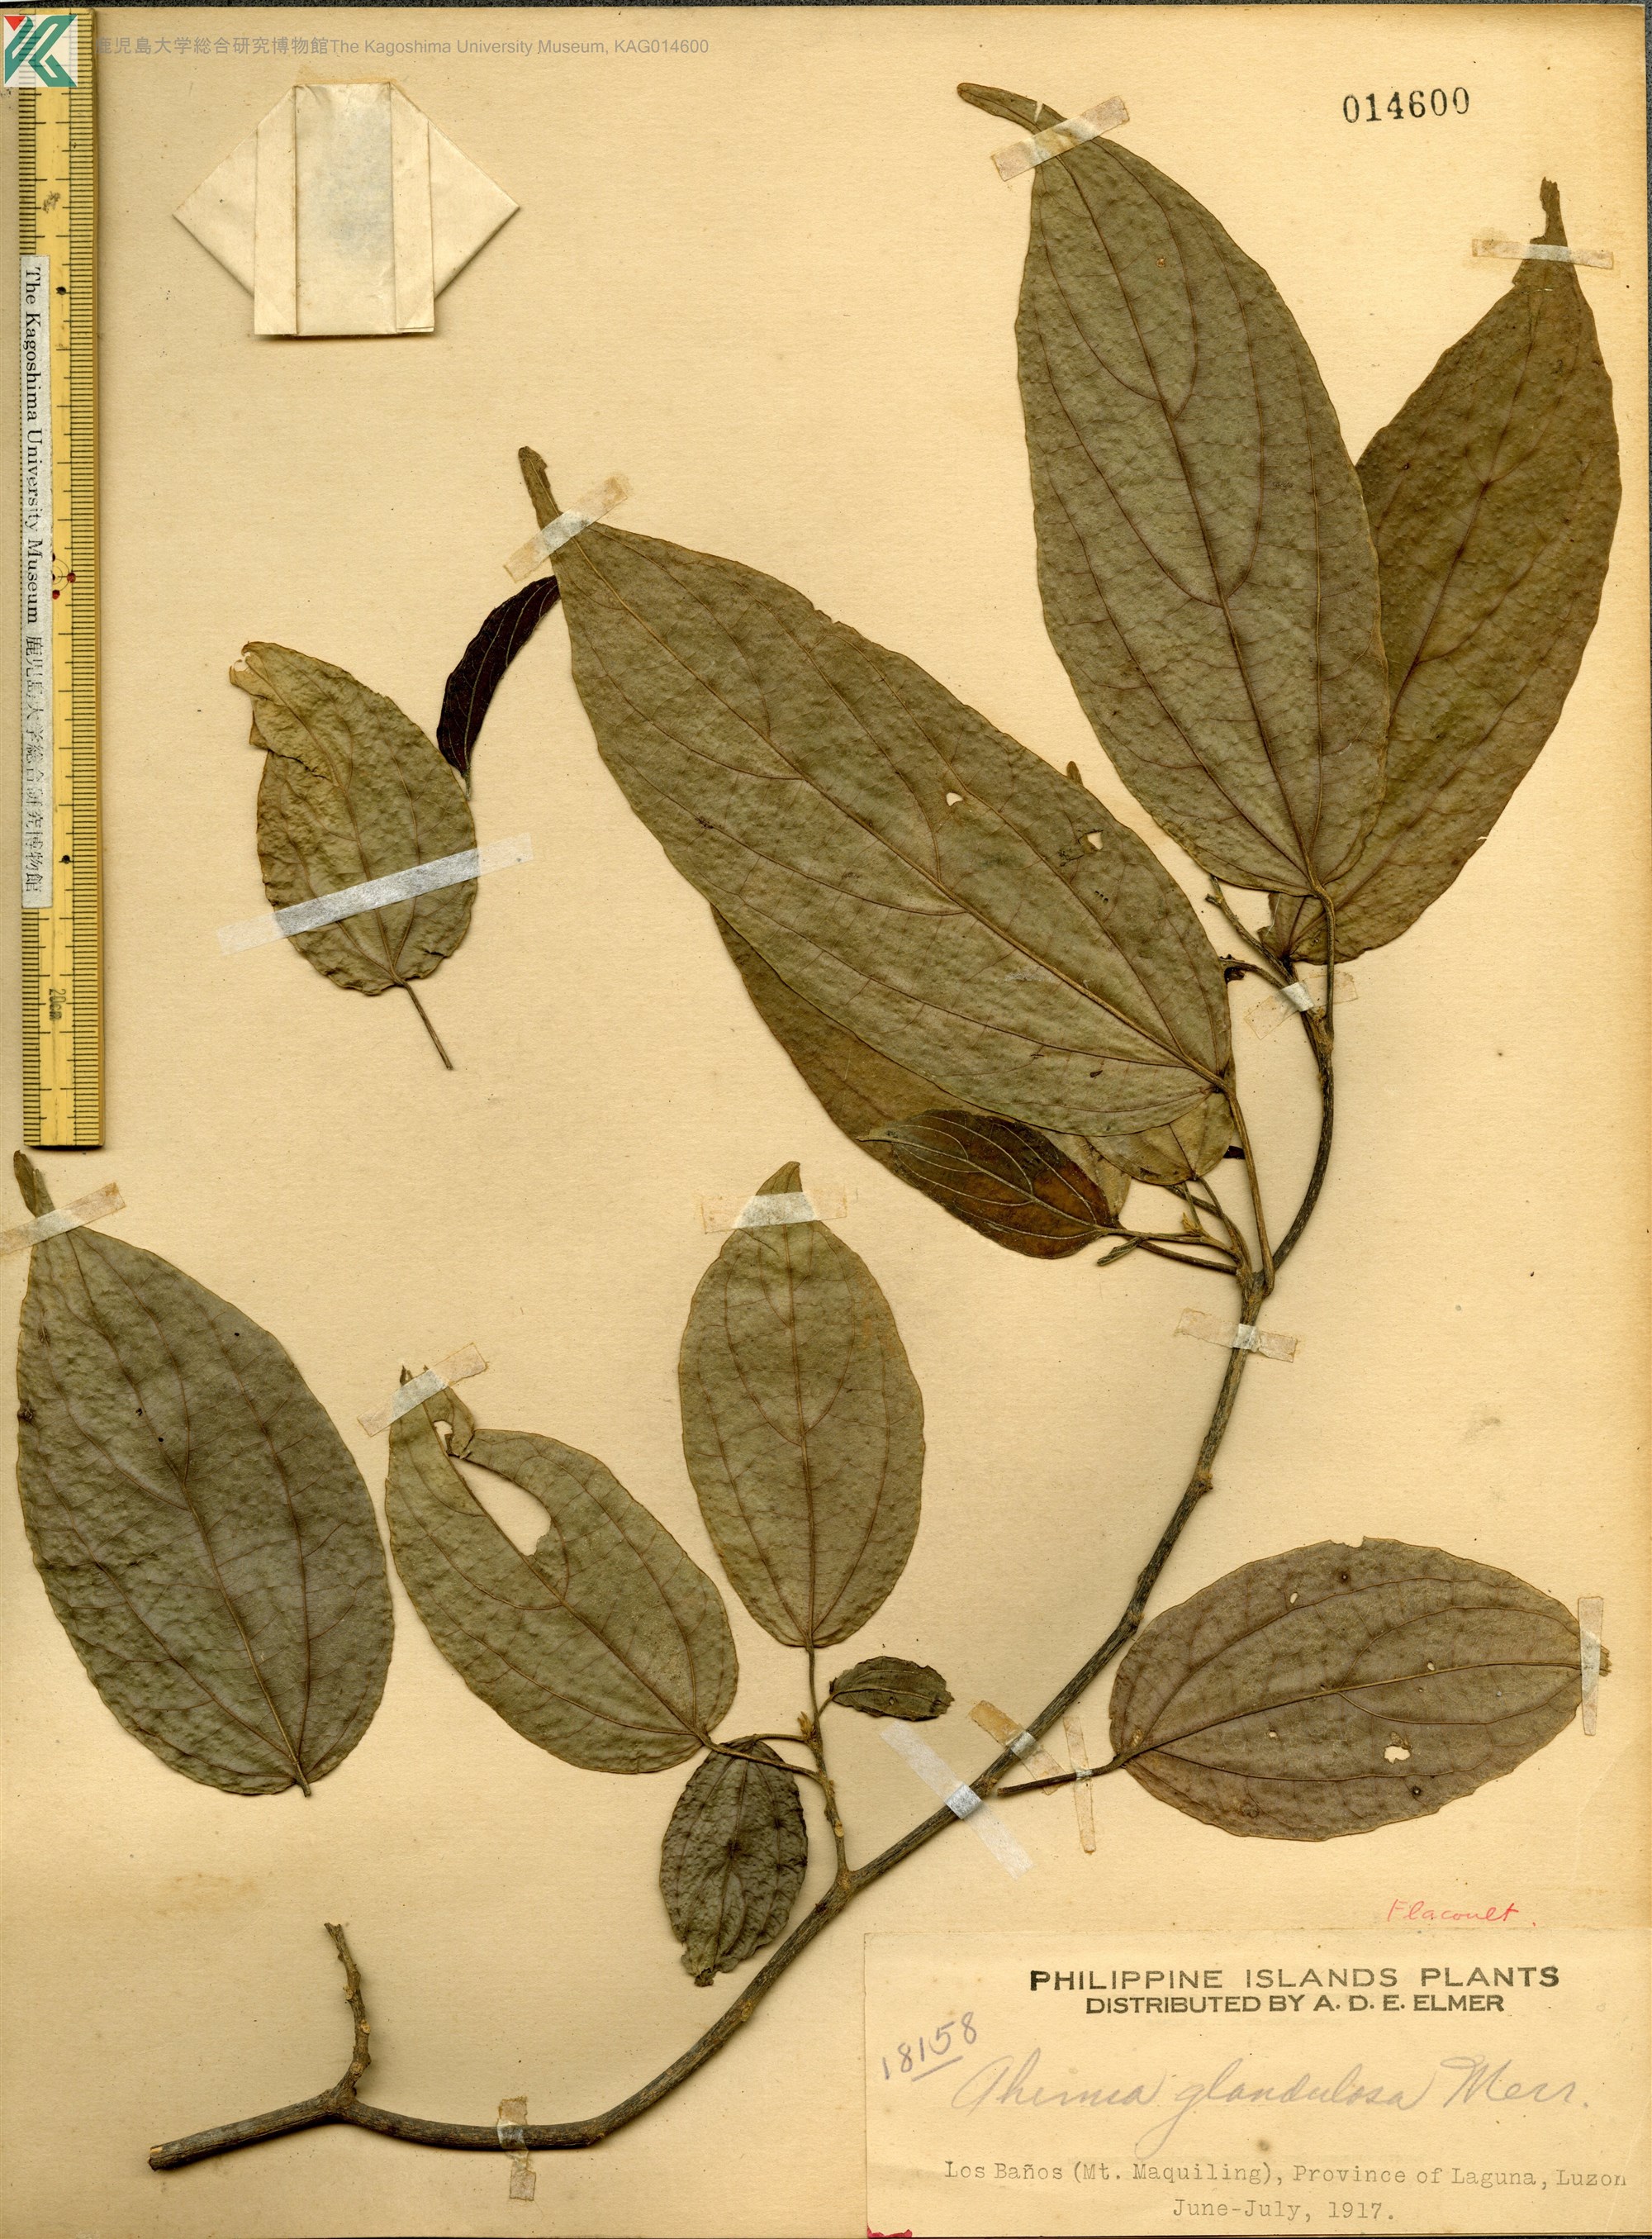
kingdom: Plantae
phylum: Tracheophyta
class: Magnoliopsida
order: Malpighiales
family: Achariaceae
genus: Ahernia
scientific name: Ahernia glandulosa
